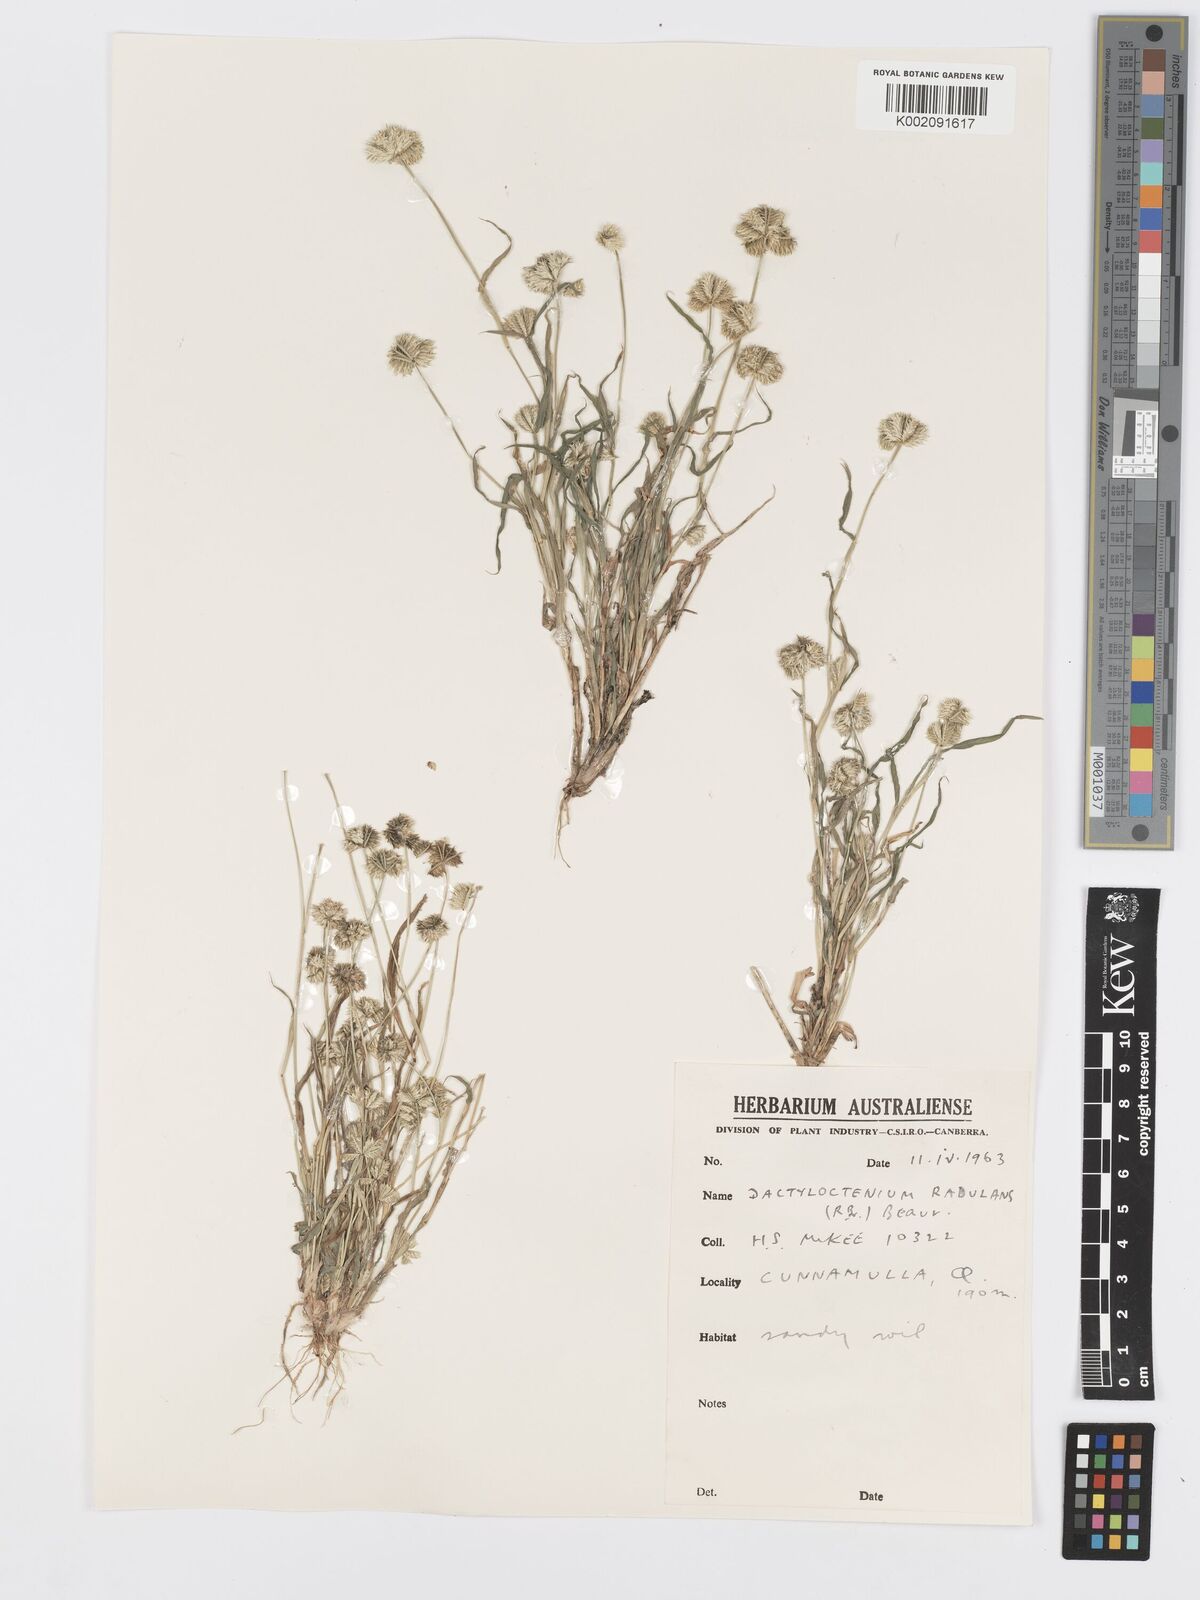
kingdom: Plantae
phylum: Tracheophyta
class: Liliopsida
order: Poales
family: Poaceae
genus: Dactyloctenium
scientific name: Dactyloctenium radulans
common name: Button-grass
